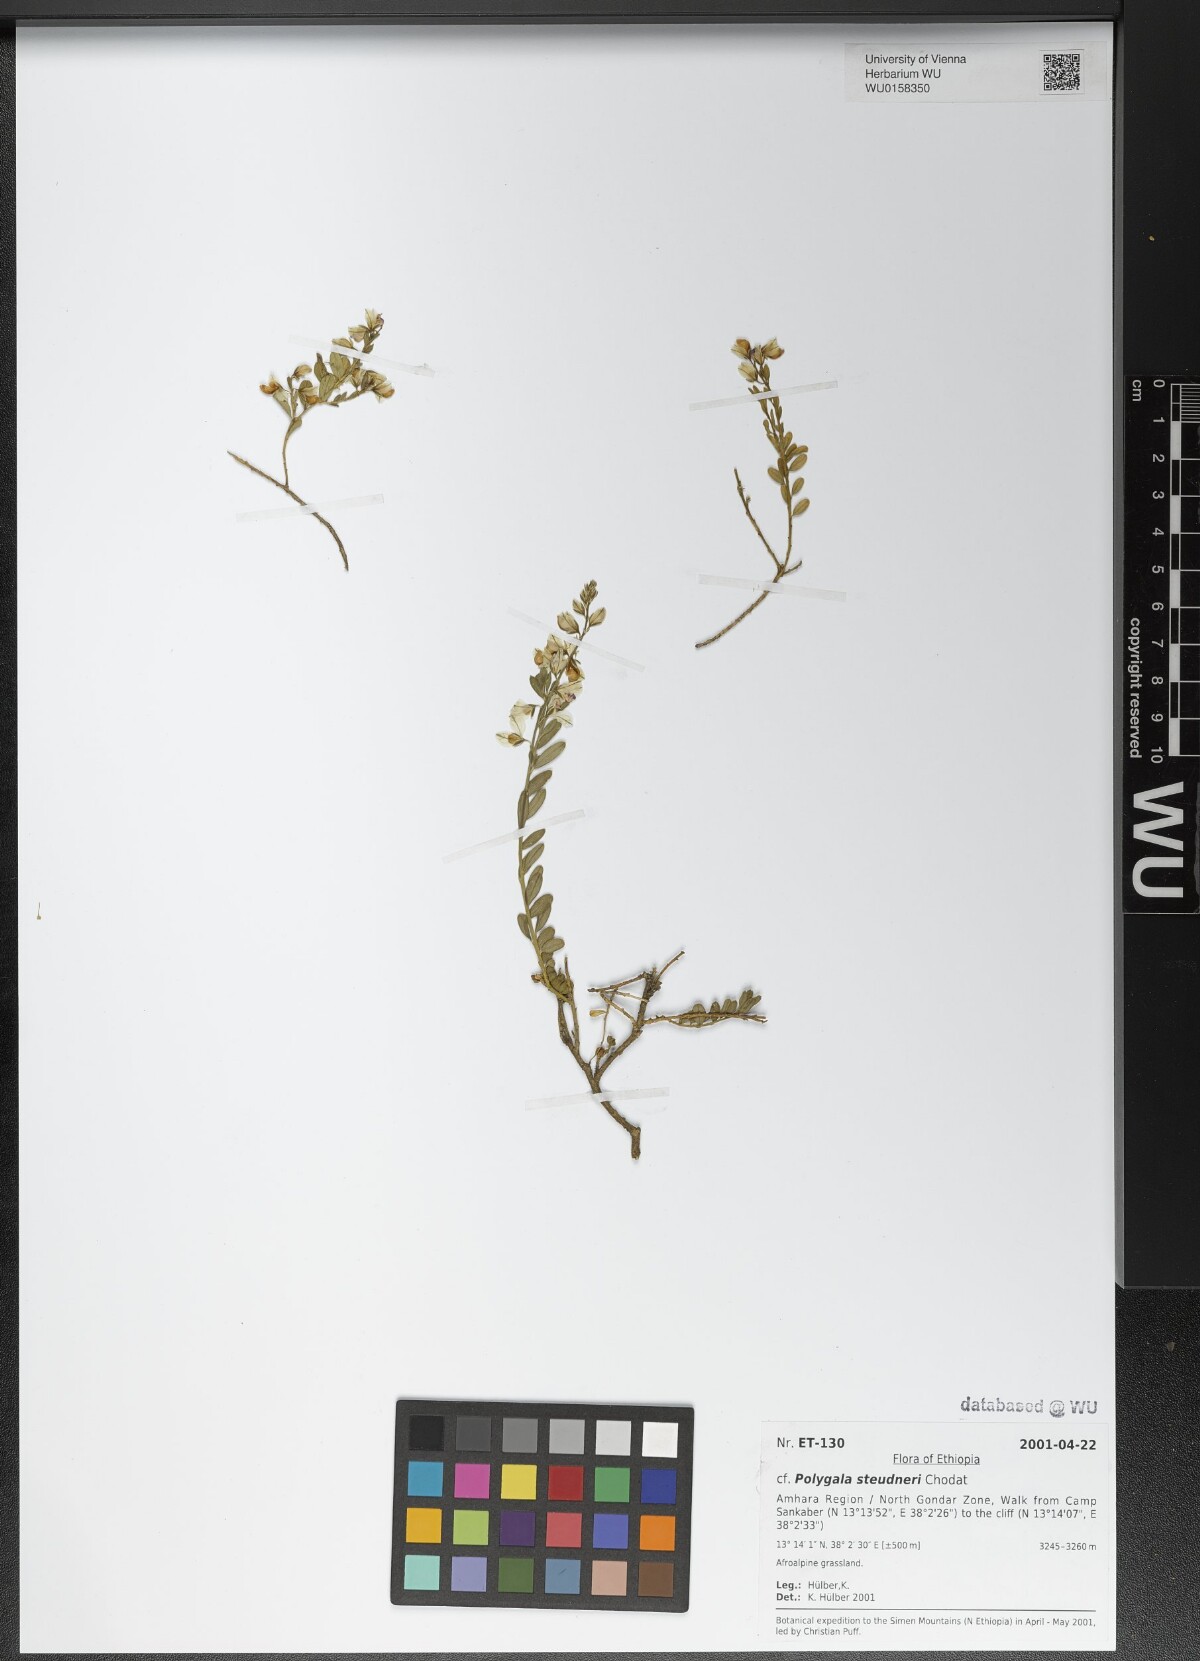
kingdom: Plantae
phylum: Tracheophyta
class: Magnoliopsida
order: Fabales
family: Polygalaceae
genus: Polygala
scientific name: Polygala steudneri
